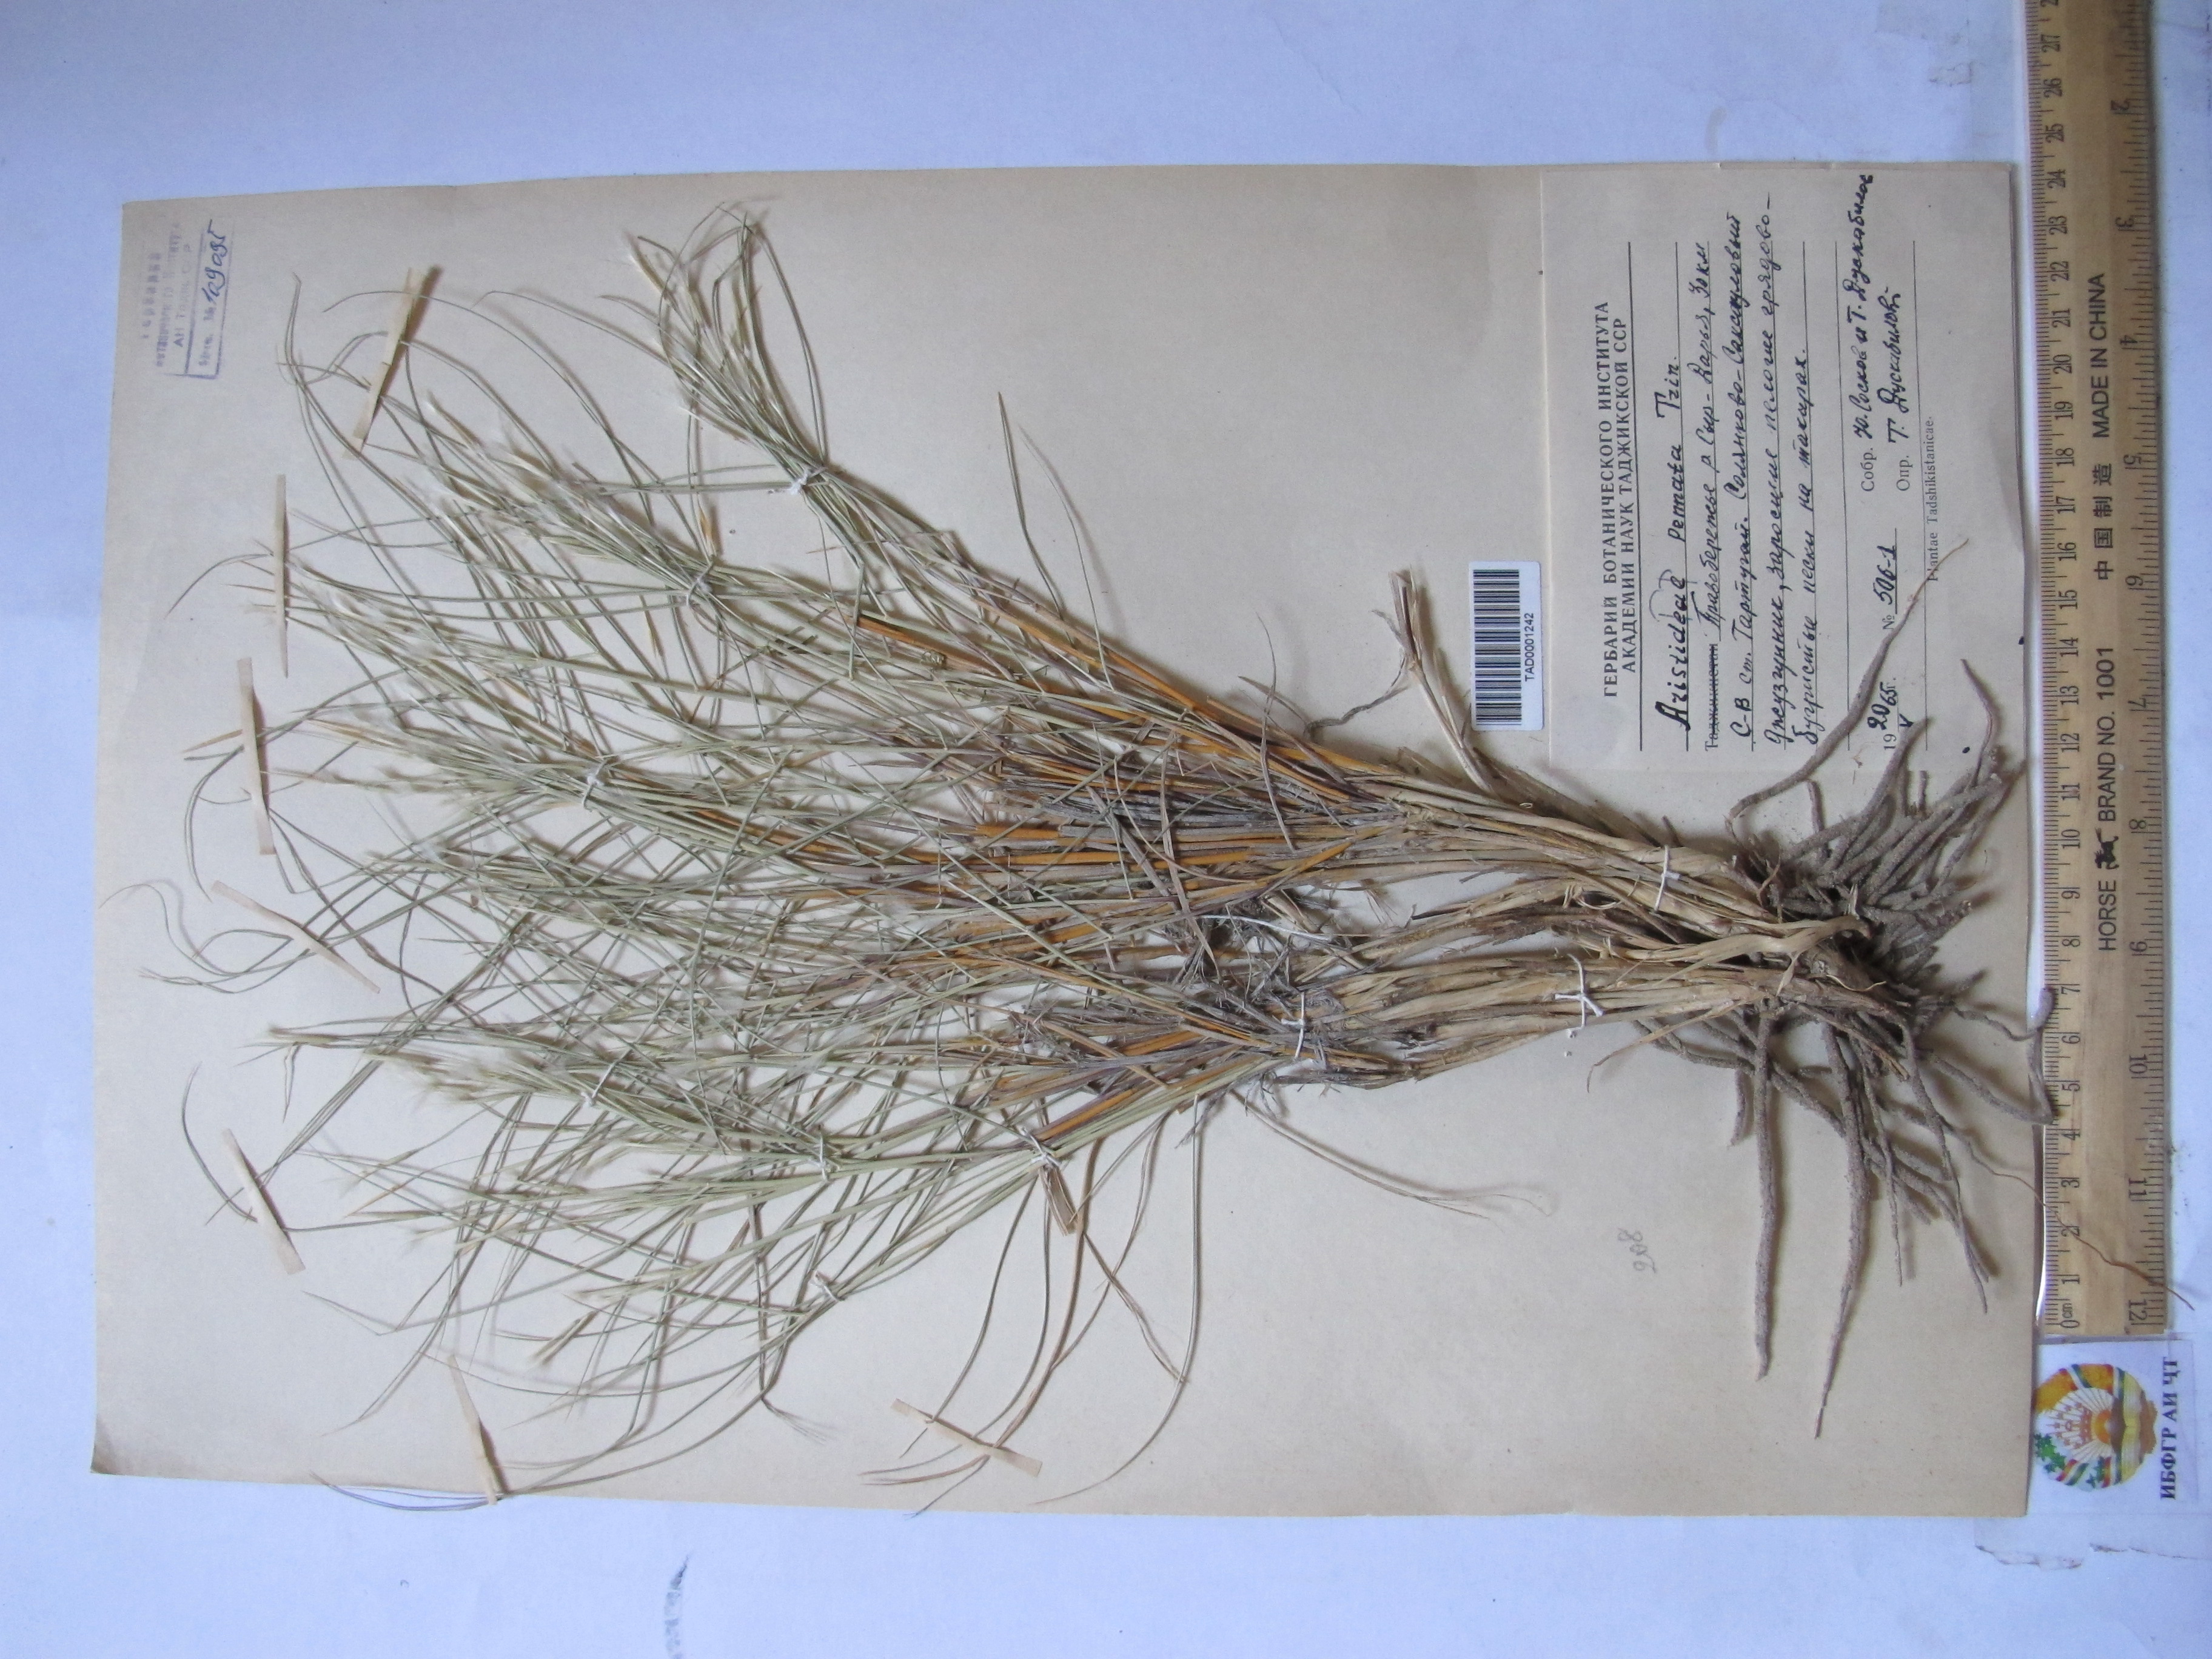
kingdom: Plantae
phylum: Tracheophyta
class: Liliopsida
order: Poales
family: Poaceae
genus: Stipagrostis
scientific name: Stipagrostis pennata
